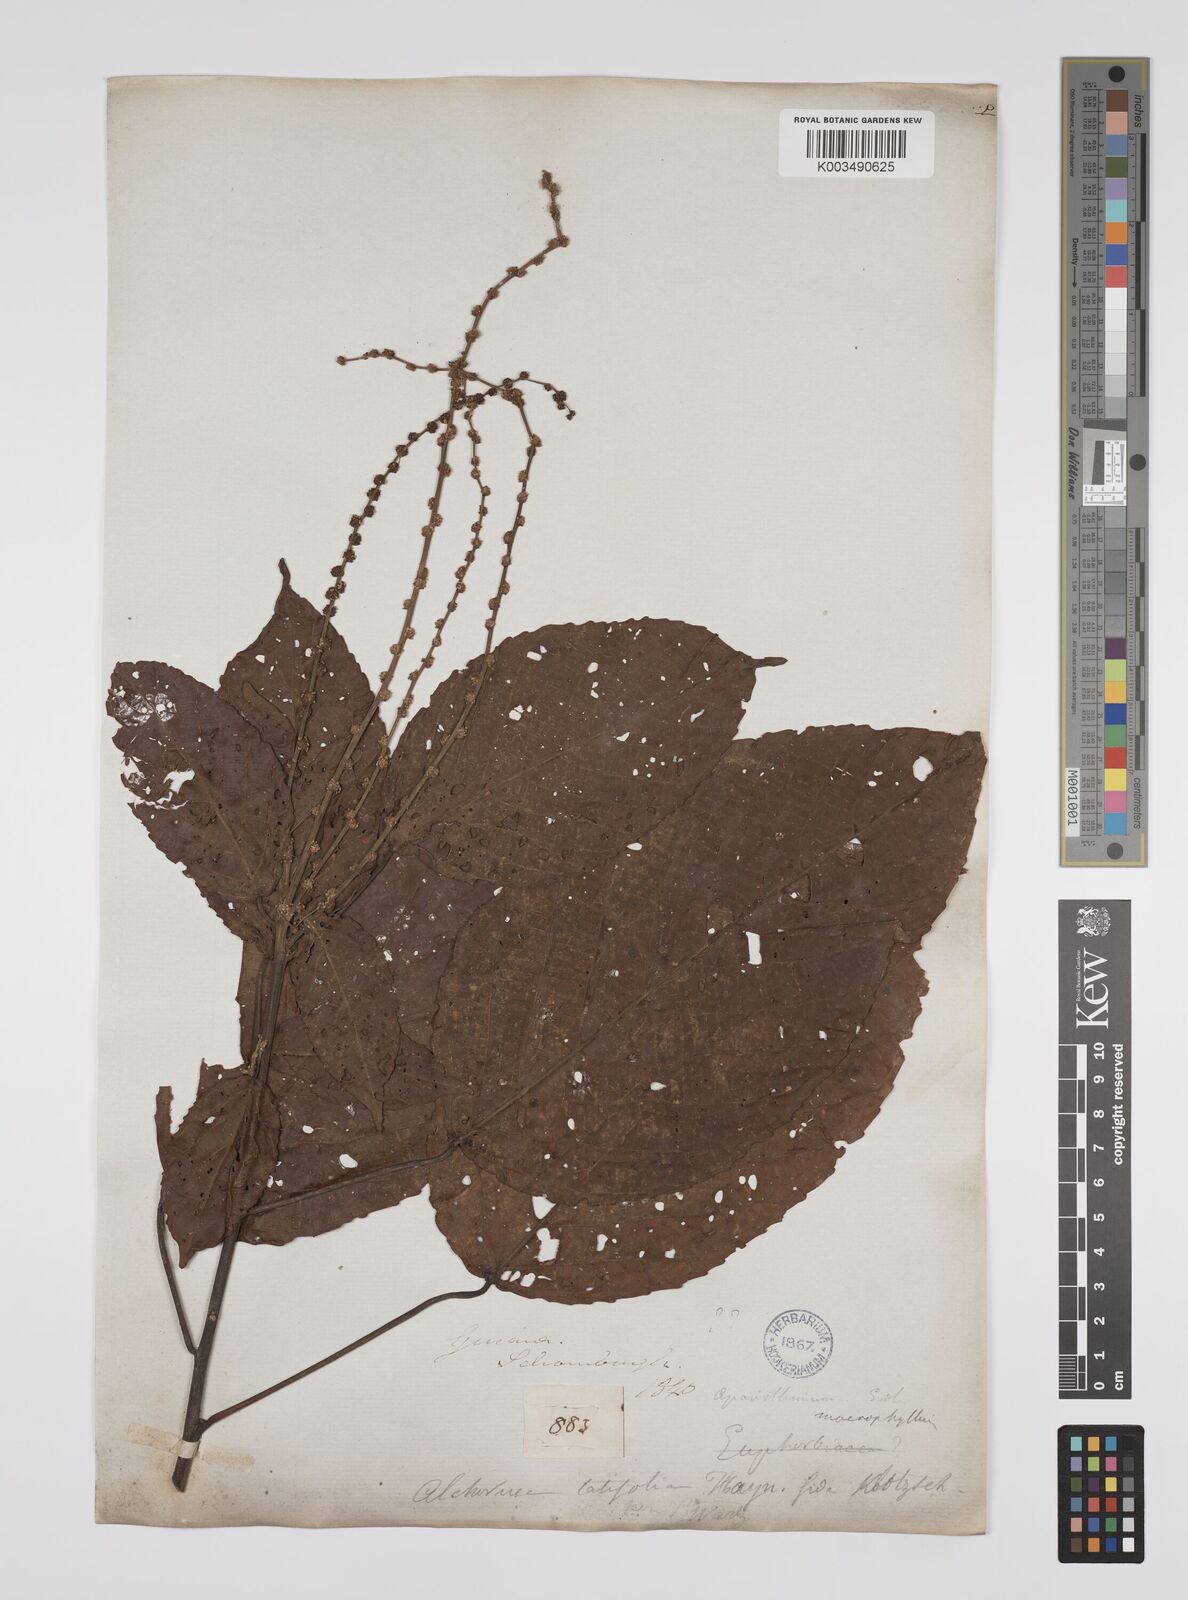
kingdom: Plantae
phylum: Tracheophyta
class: Magnoliopsida
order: Malpighiales
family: Euphorbiaceae
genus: Aparisthmium
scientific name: Aparisthmium cordatum
